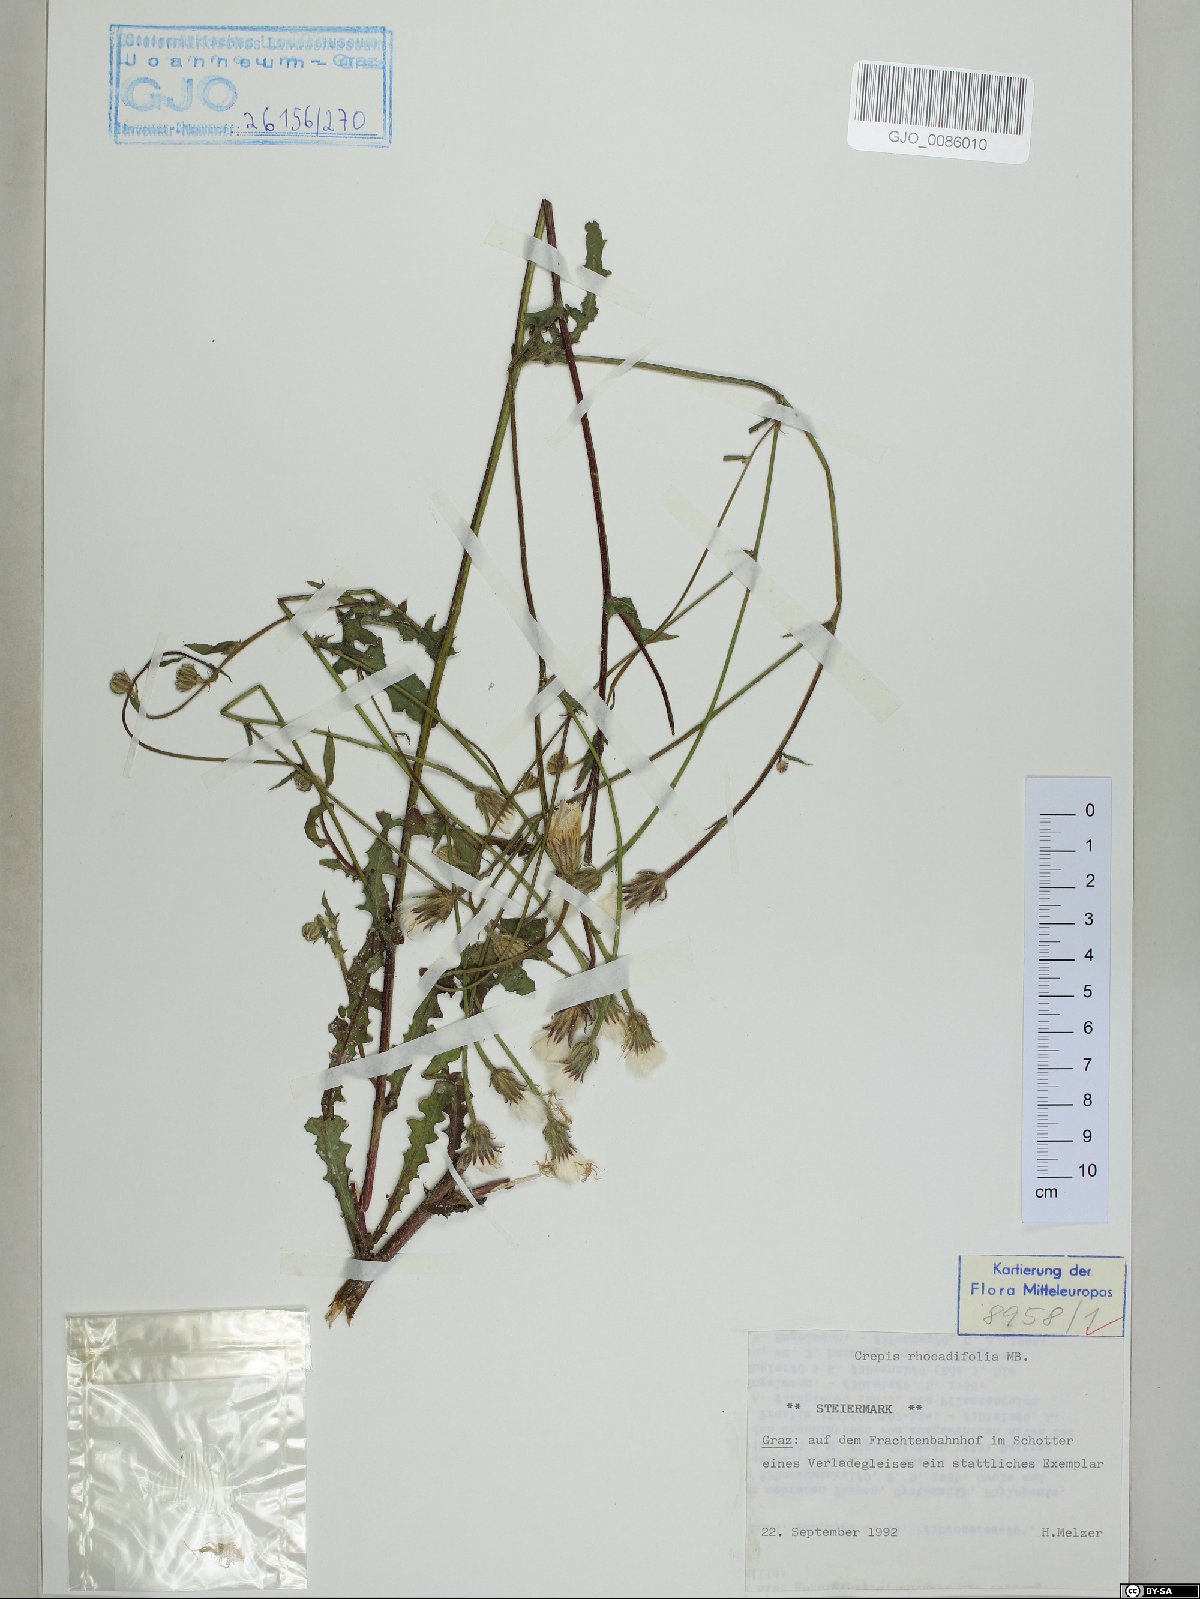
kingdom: Plantae
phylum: Tracheophyta
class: Magnoliopsida
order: Asterales
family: Asteraceae
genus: Crepis
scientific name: Crepis foetida
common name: Stinking hawk's-beard
